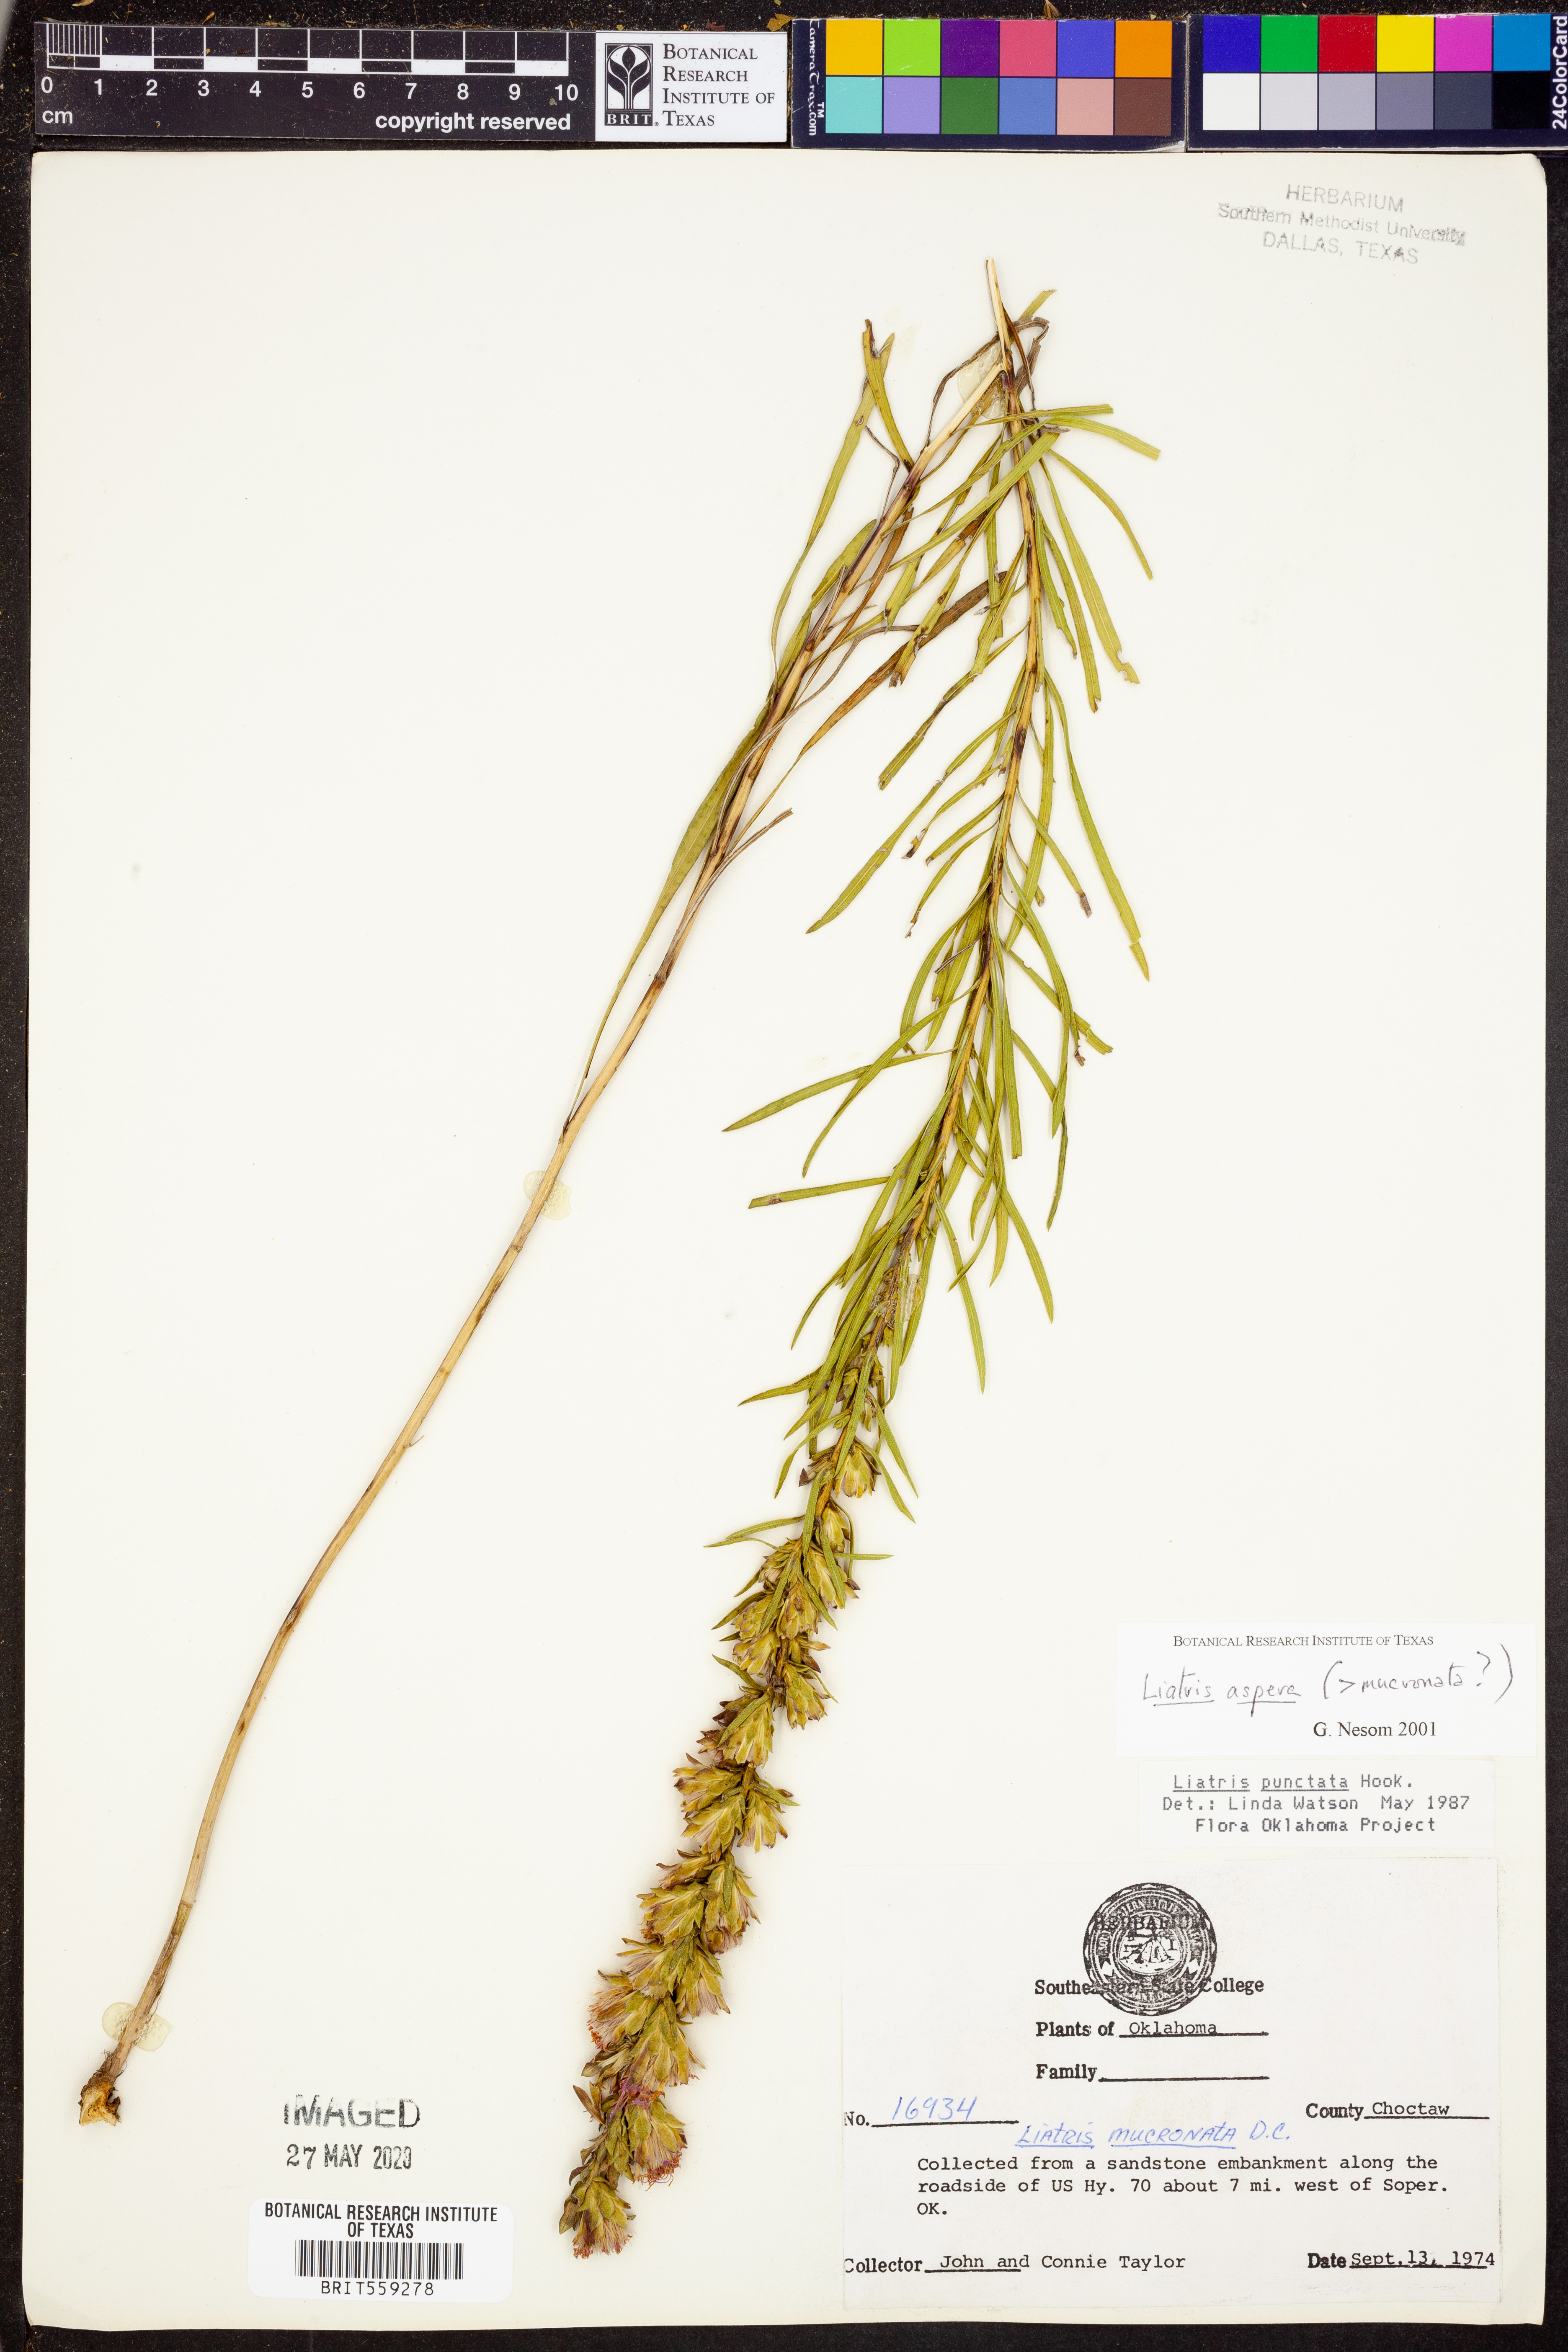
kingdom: Plantae
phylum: Tracheophyta
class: Magnoliopsida
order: Asterales
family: Asteraceae
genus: Liatris
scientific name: Liatris aspera
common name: Lacerate blazing-star
